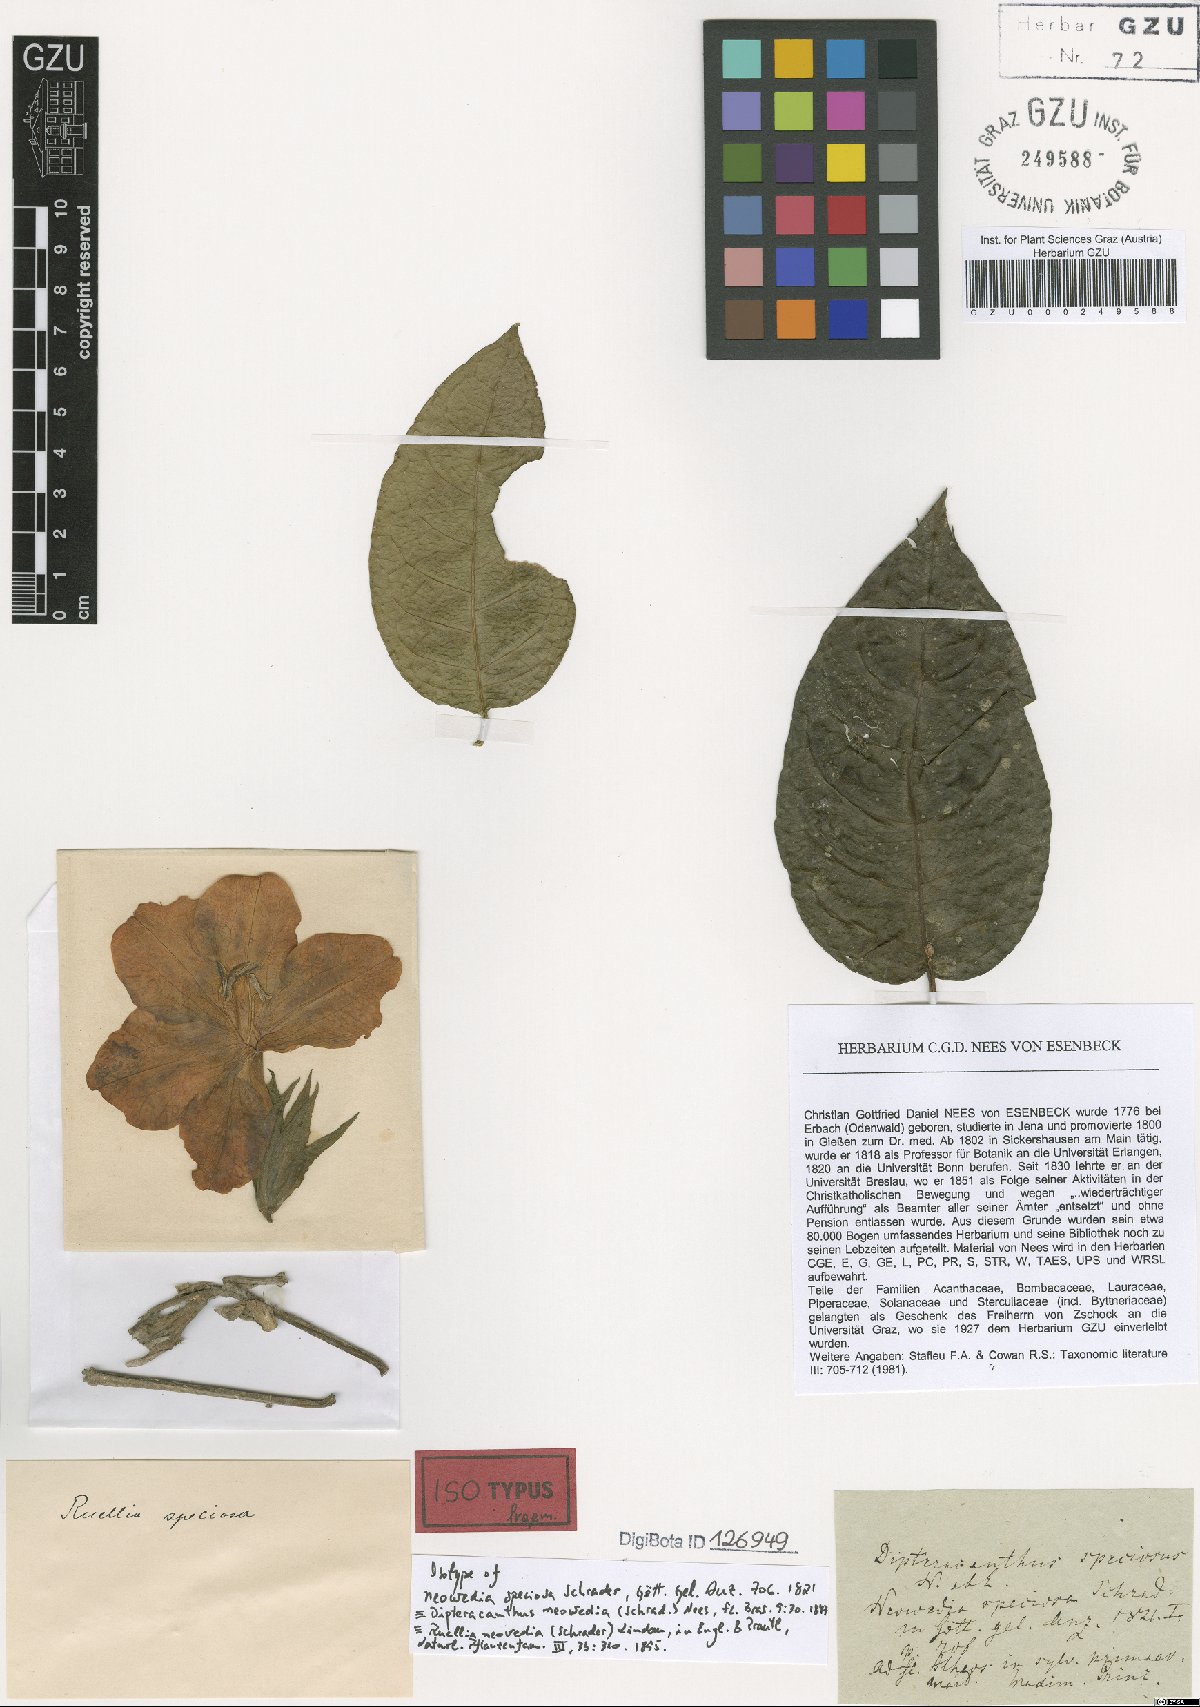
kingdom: Plantae
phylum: Tracheophyta
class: Magnoliopsida
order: Lamiales
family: Acanthaceae
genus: Ruellia
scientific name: Ruellia neowedia
